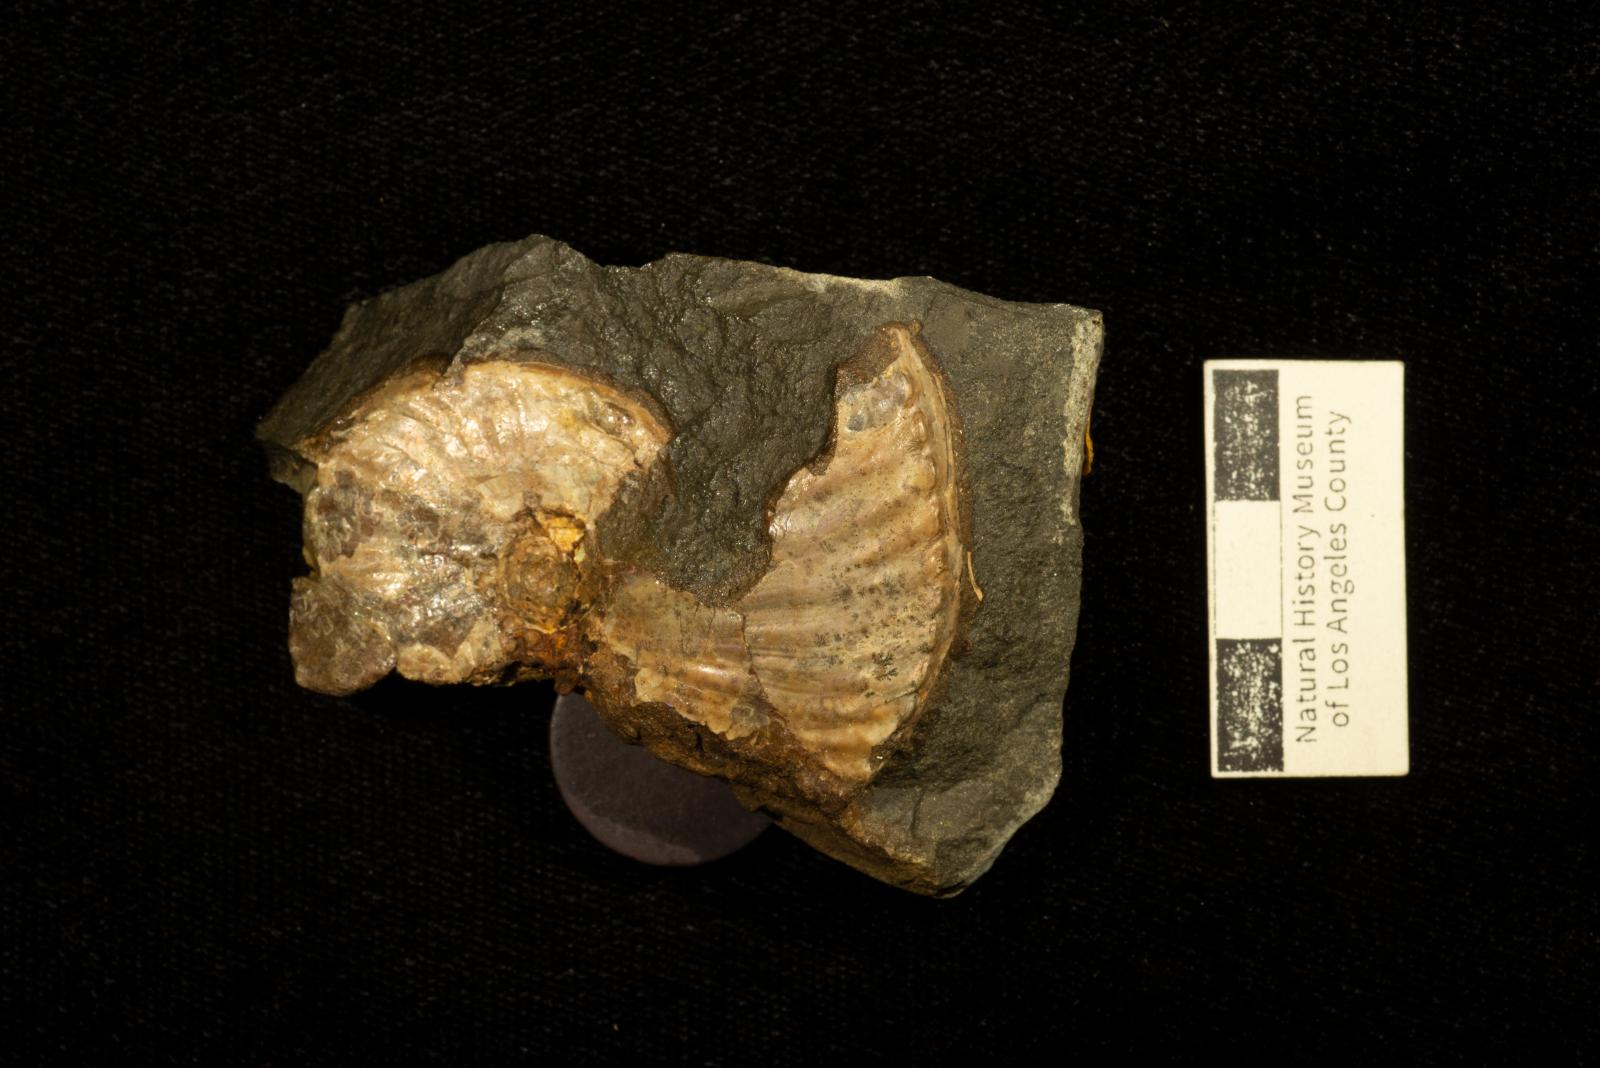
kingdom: Animalia
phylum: Mollusca
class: Cephalopoda
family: Collignoniceratidae
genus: Submortoniceras
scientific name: Submortoniceras
